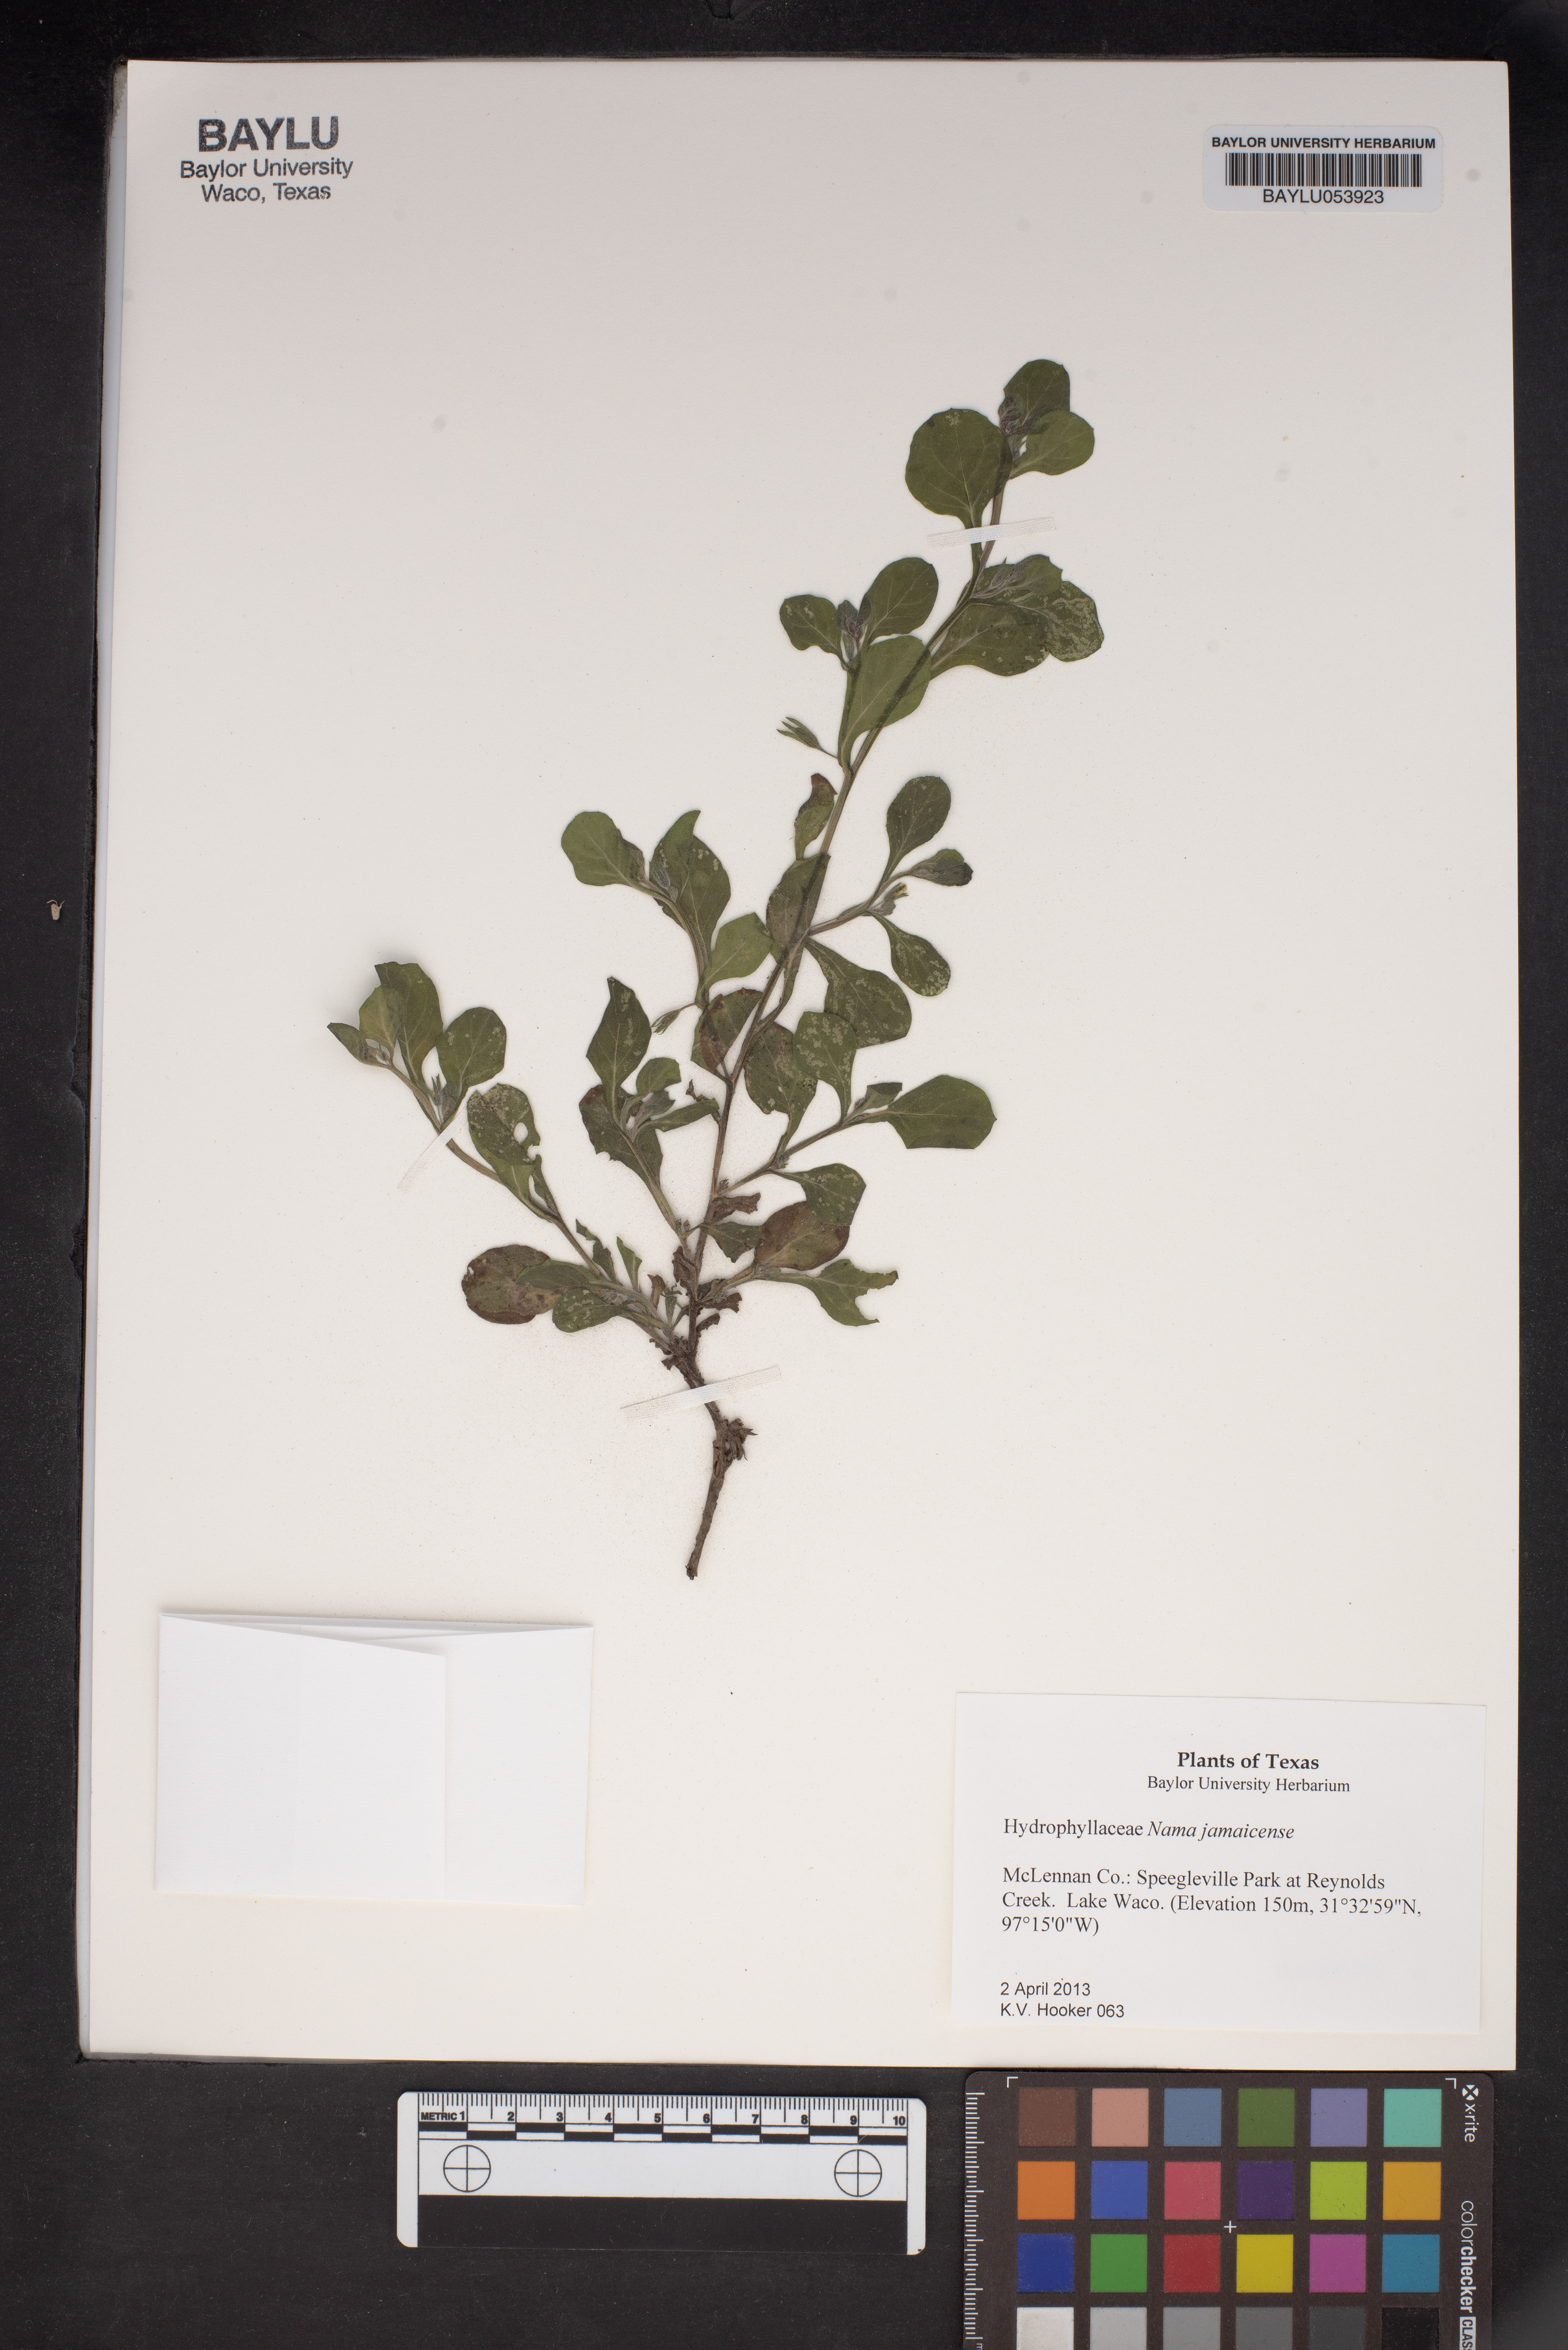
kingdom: Plantae
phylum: Tracheophyta
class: Magnoliopsida
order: Boraginales
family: Namaceae
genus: Nama
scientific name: Nama jamaicense
